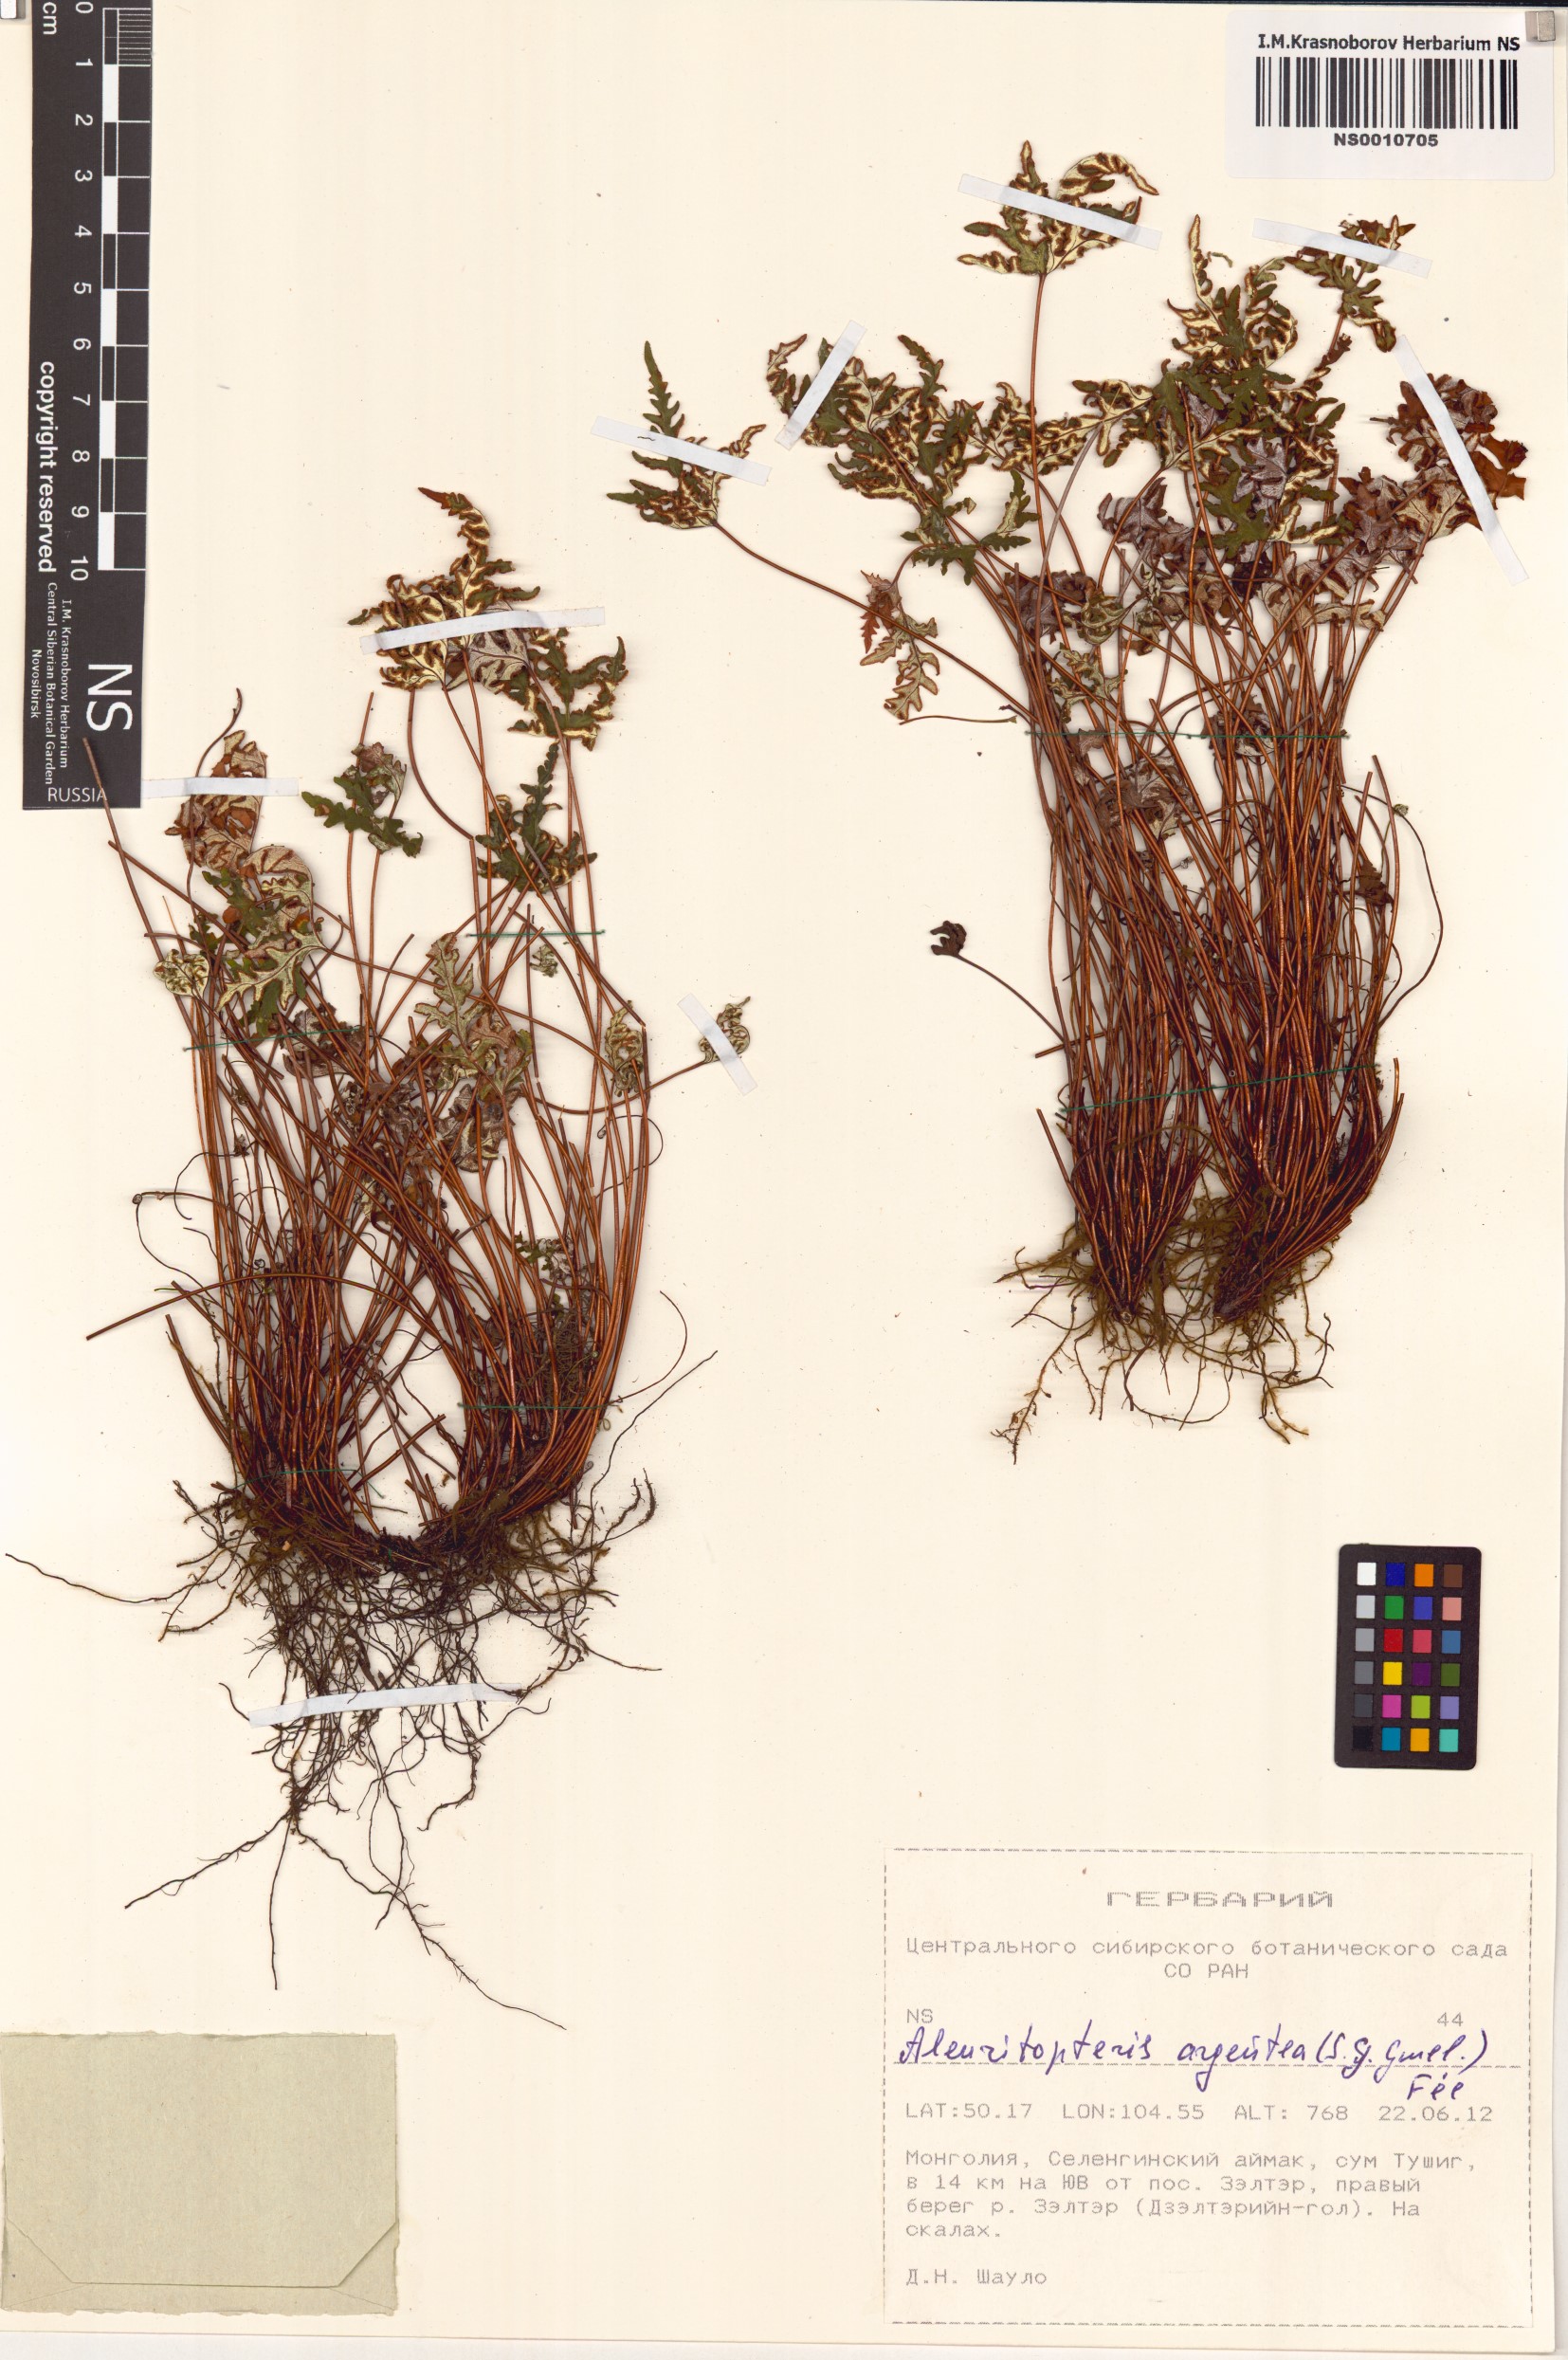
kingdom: Plantae
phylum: Tracheophyta
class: Polypodiopsida
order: Polypodiales
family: Pteridaceae
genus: Aleuritopteris
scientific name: Aleuritopteris argentea
